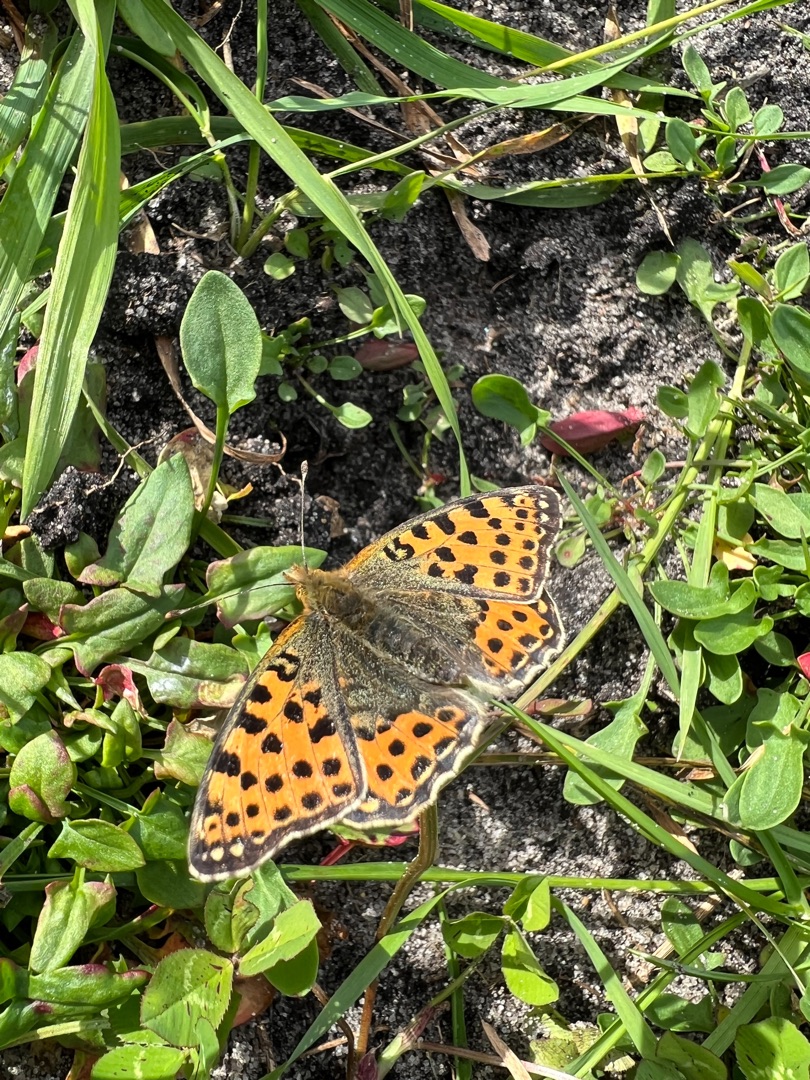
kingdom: Animalia
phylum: Arthropoda
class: Insecta
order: Lepidoptera
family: Nymphalidae
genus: Issoria
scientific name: Issoria lathonia
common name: Storplettet perlemorsommerfugl
